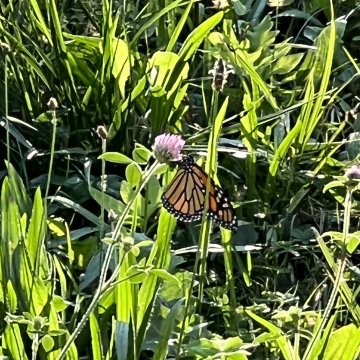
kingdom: Animalia
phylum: Arthropoda
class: Insecta
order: Lepidoptera
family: Nymphalidae
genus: Danaus
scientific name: Danaus plexippus
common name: Monarch
